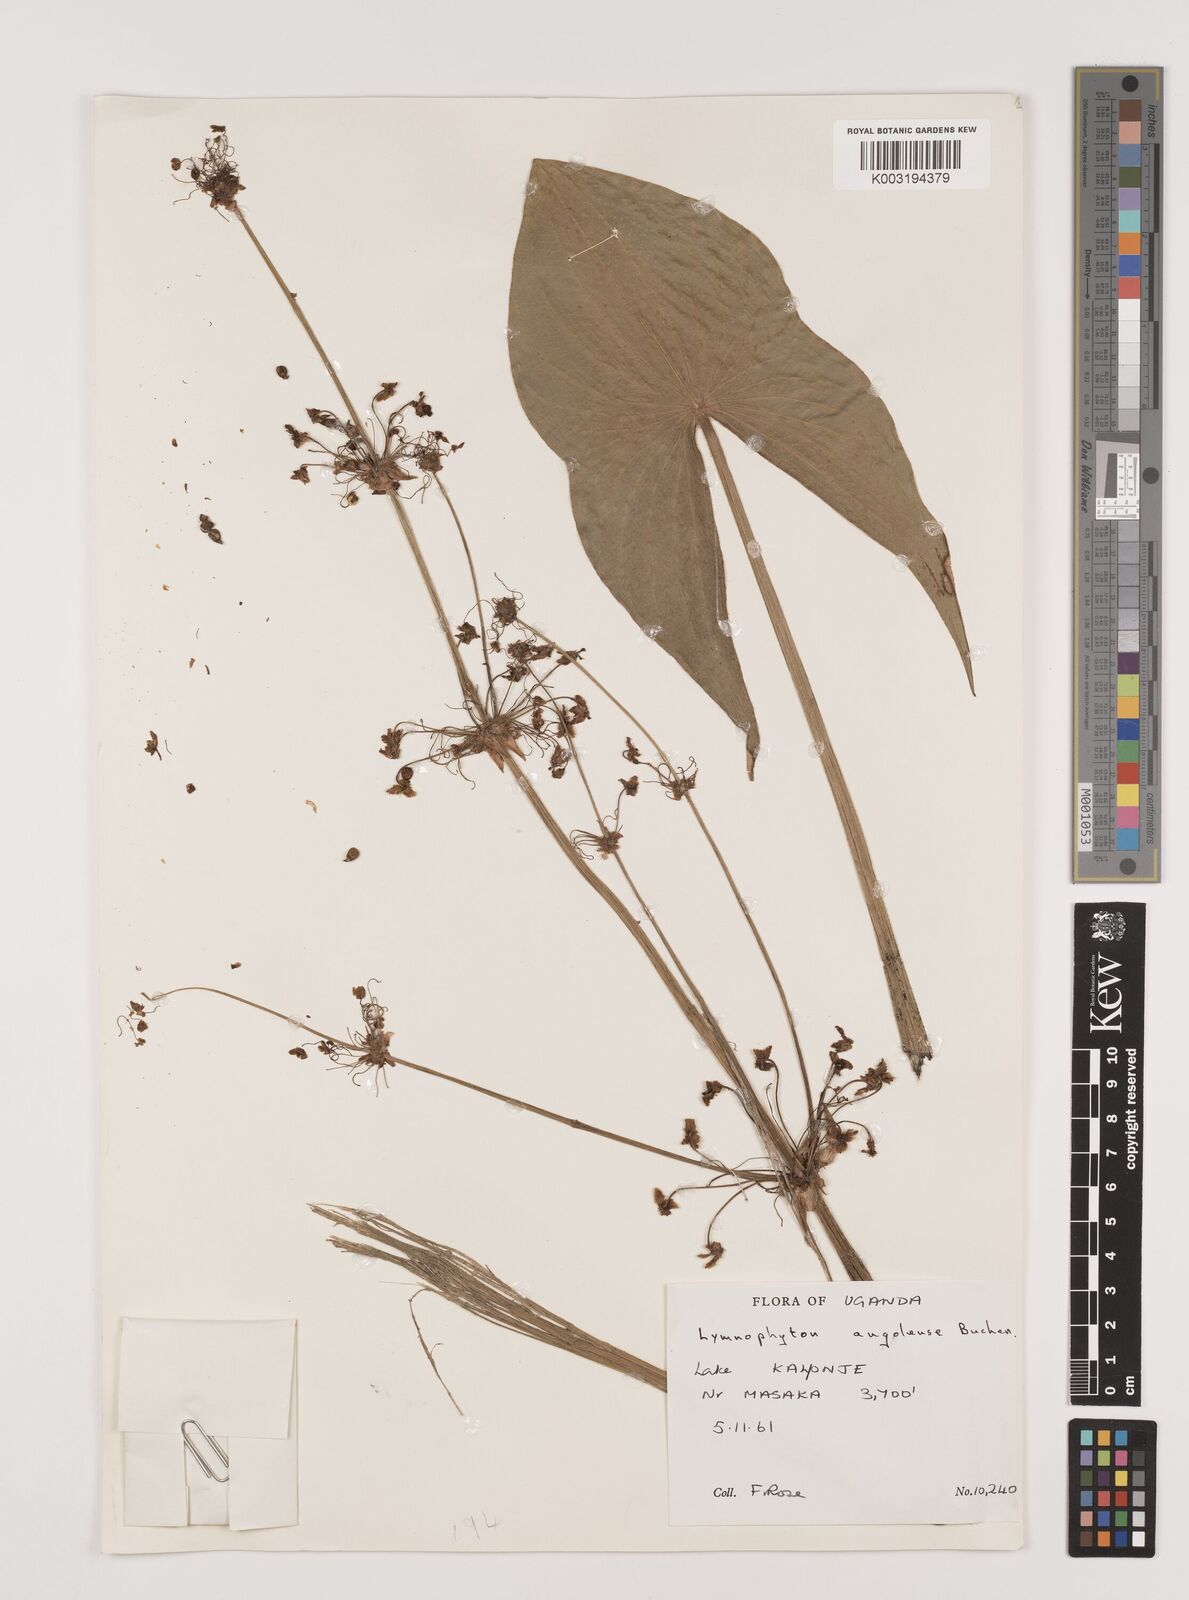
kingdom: Plantae
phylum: Tracheophyta
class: Liliopsida
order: Alismatales
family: Alismataceae
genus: Limnophyton
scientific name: Limnophyton angolense
